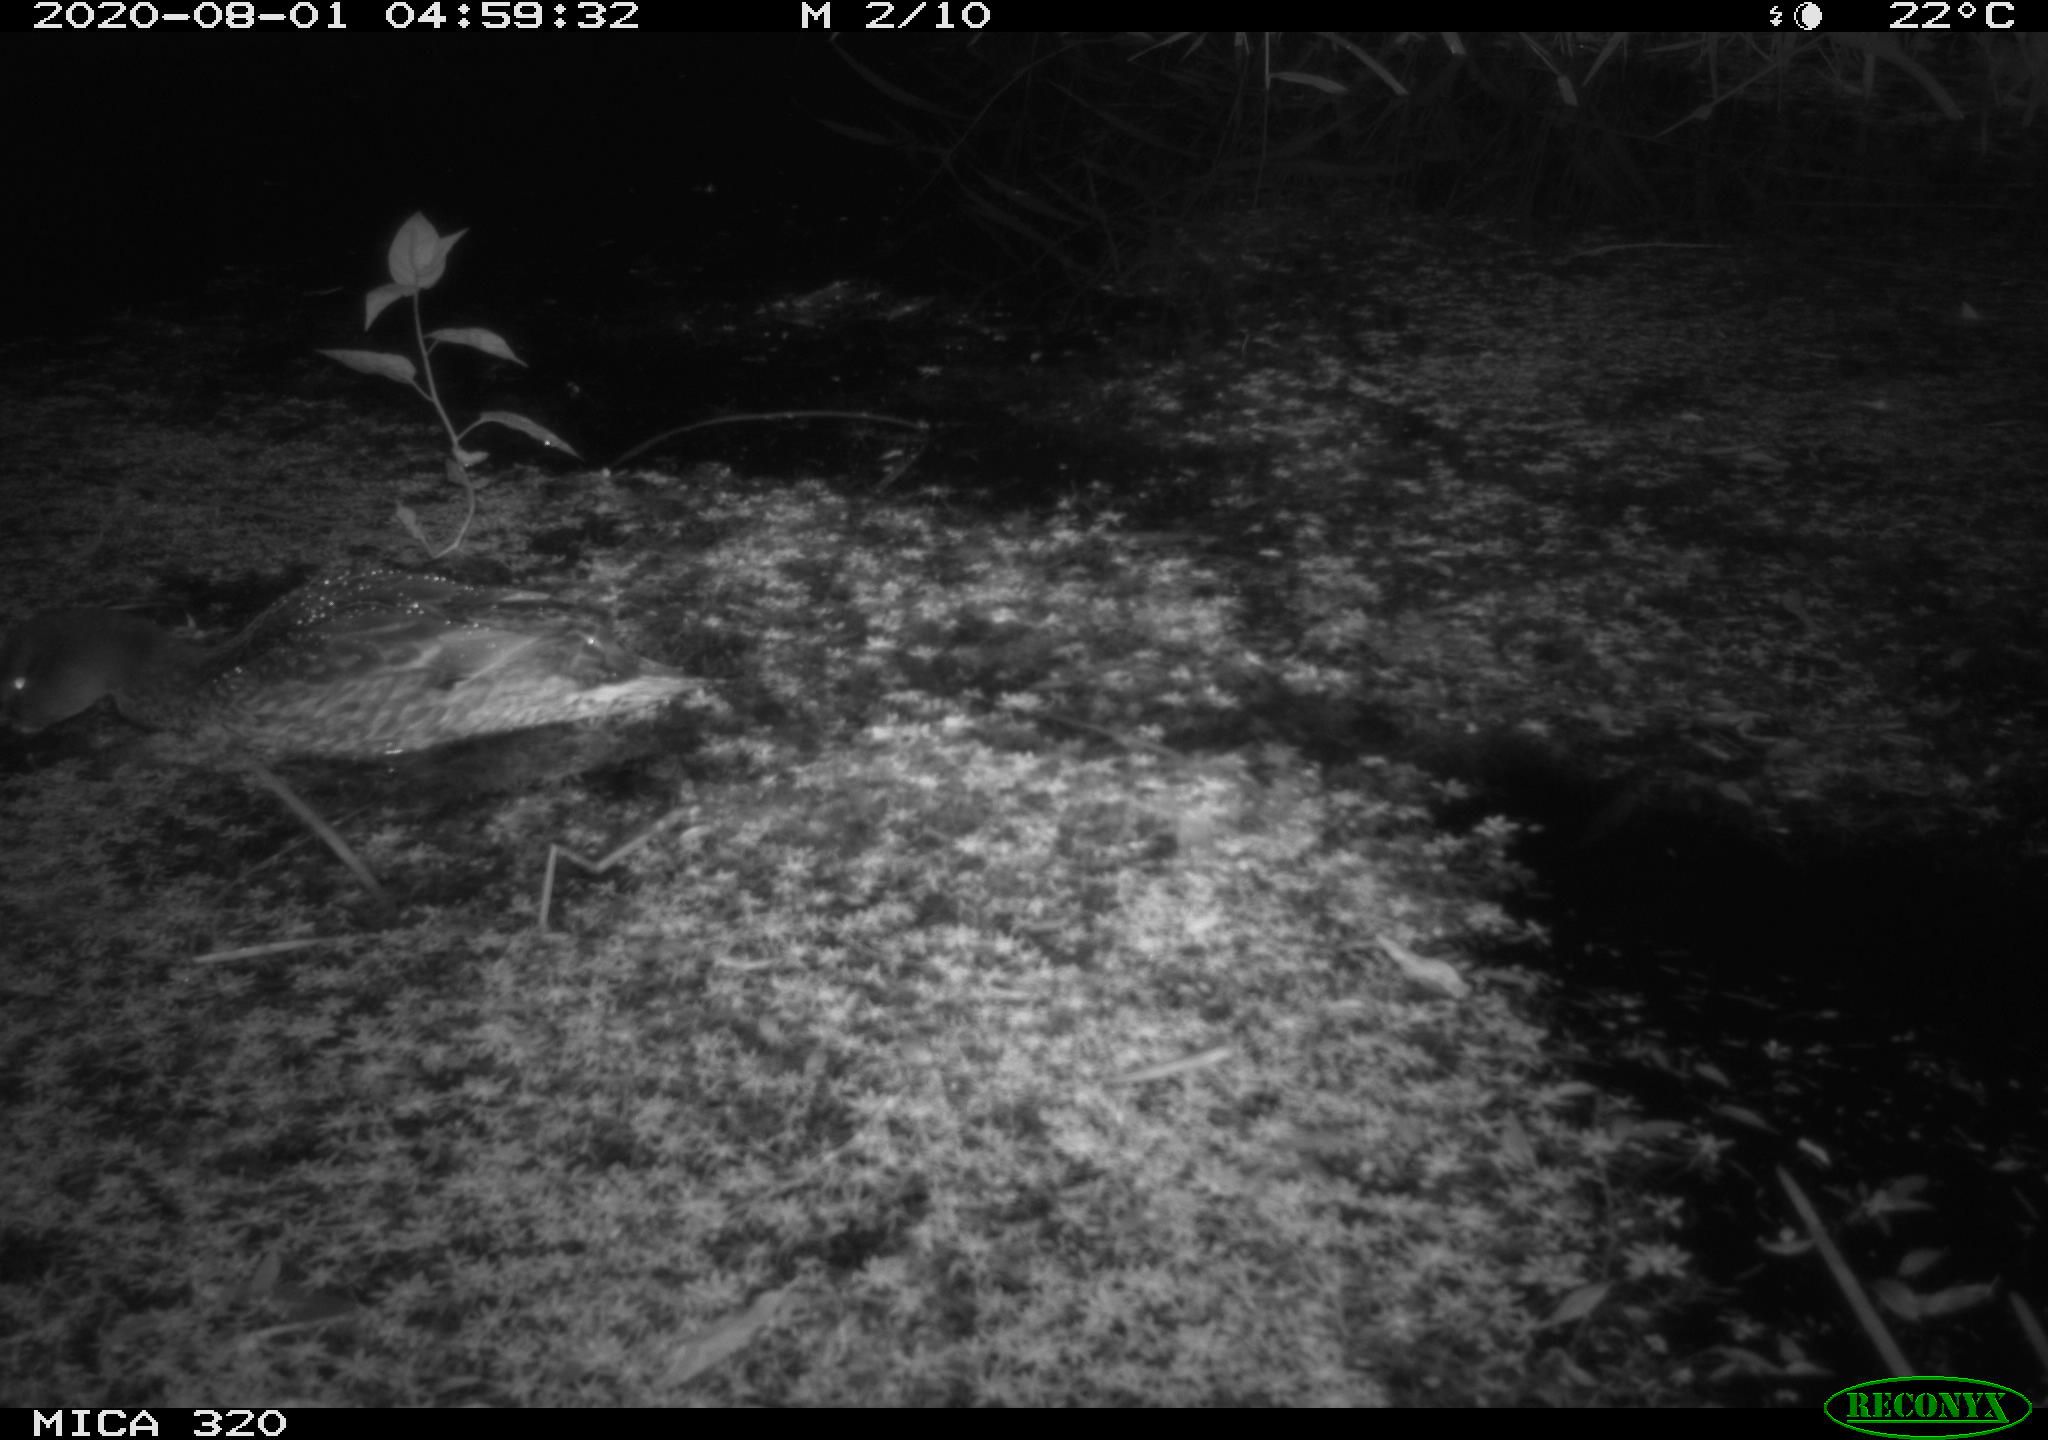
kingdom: Animalia
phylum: Chordata
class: Aves
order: Anseriformes
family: Anatidae
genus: Anas
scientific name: Anas platyrhynchos
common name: Mallard
